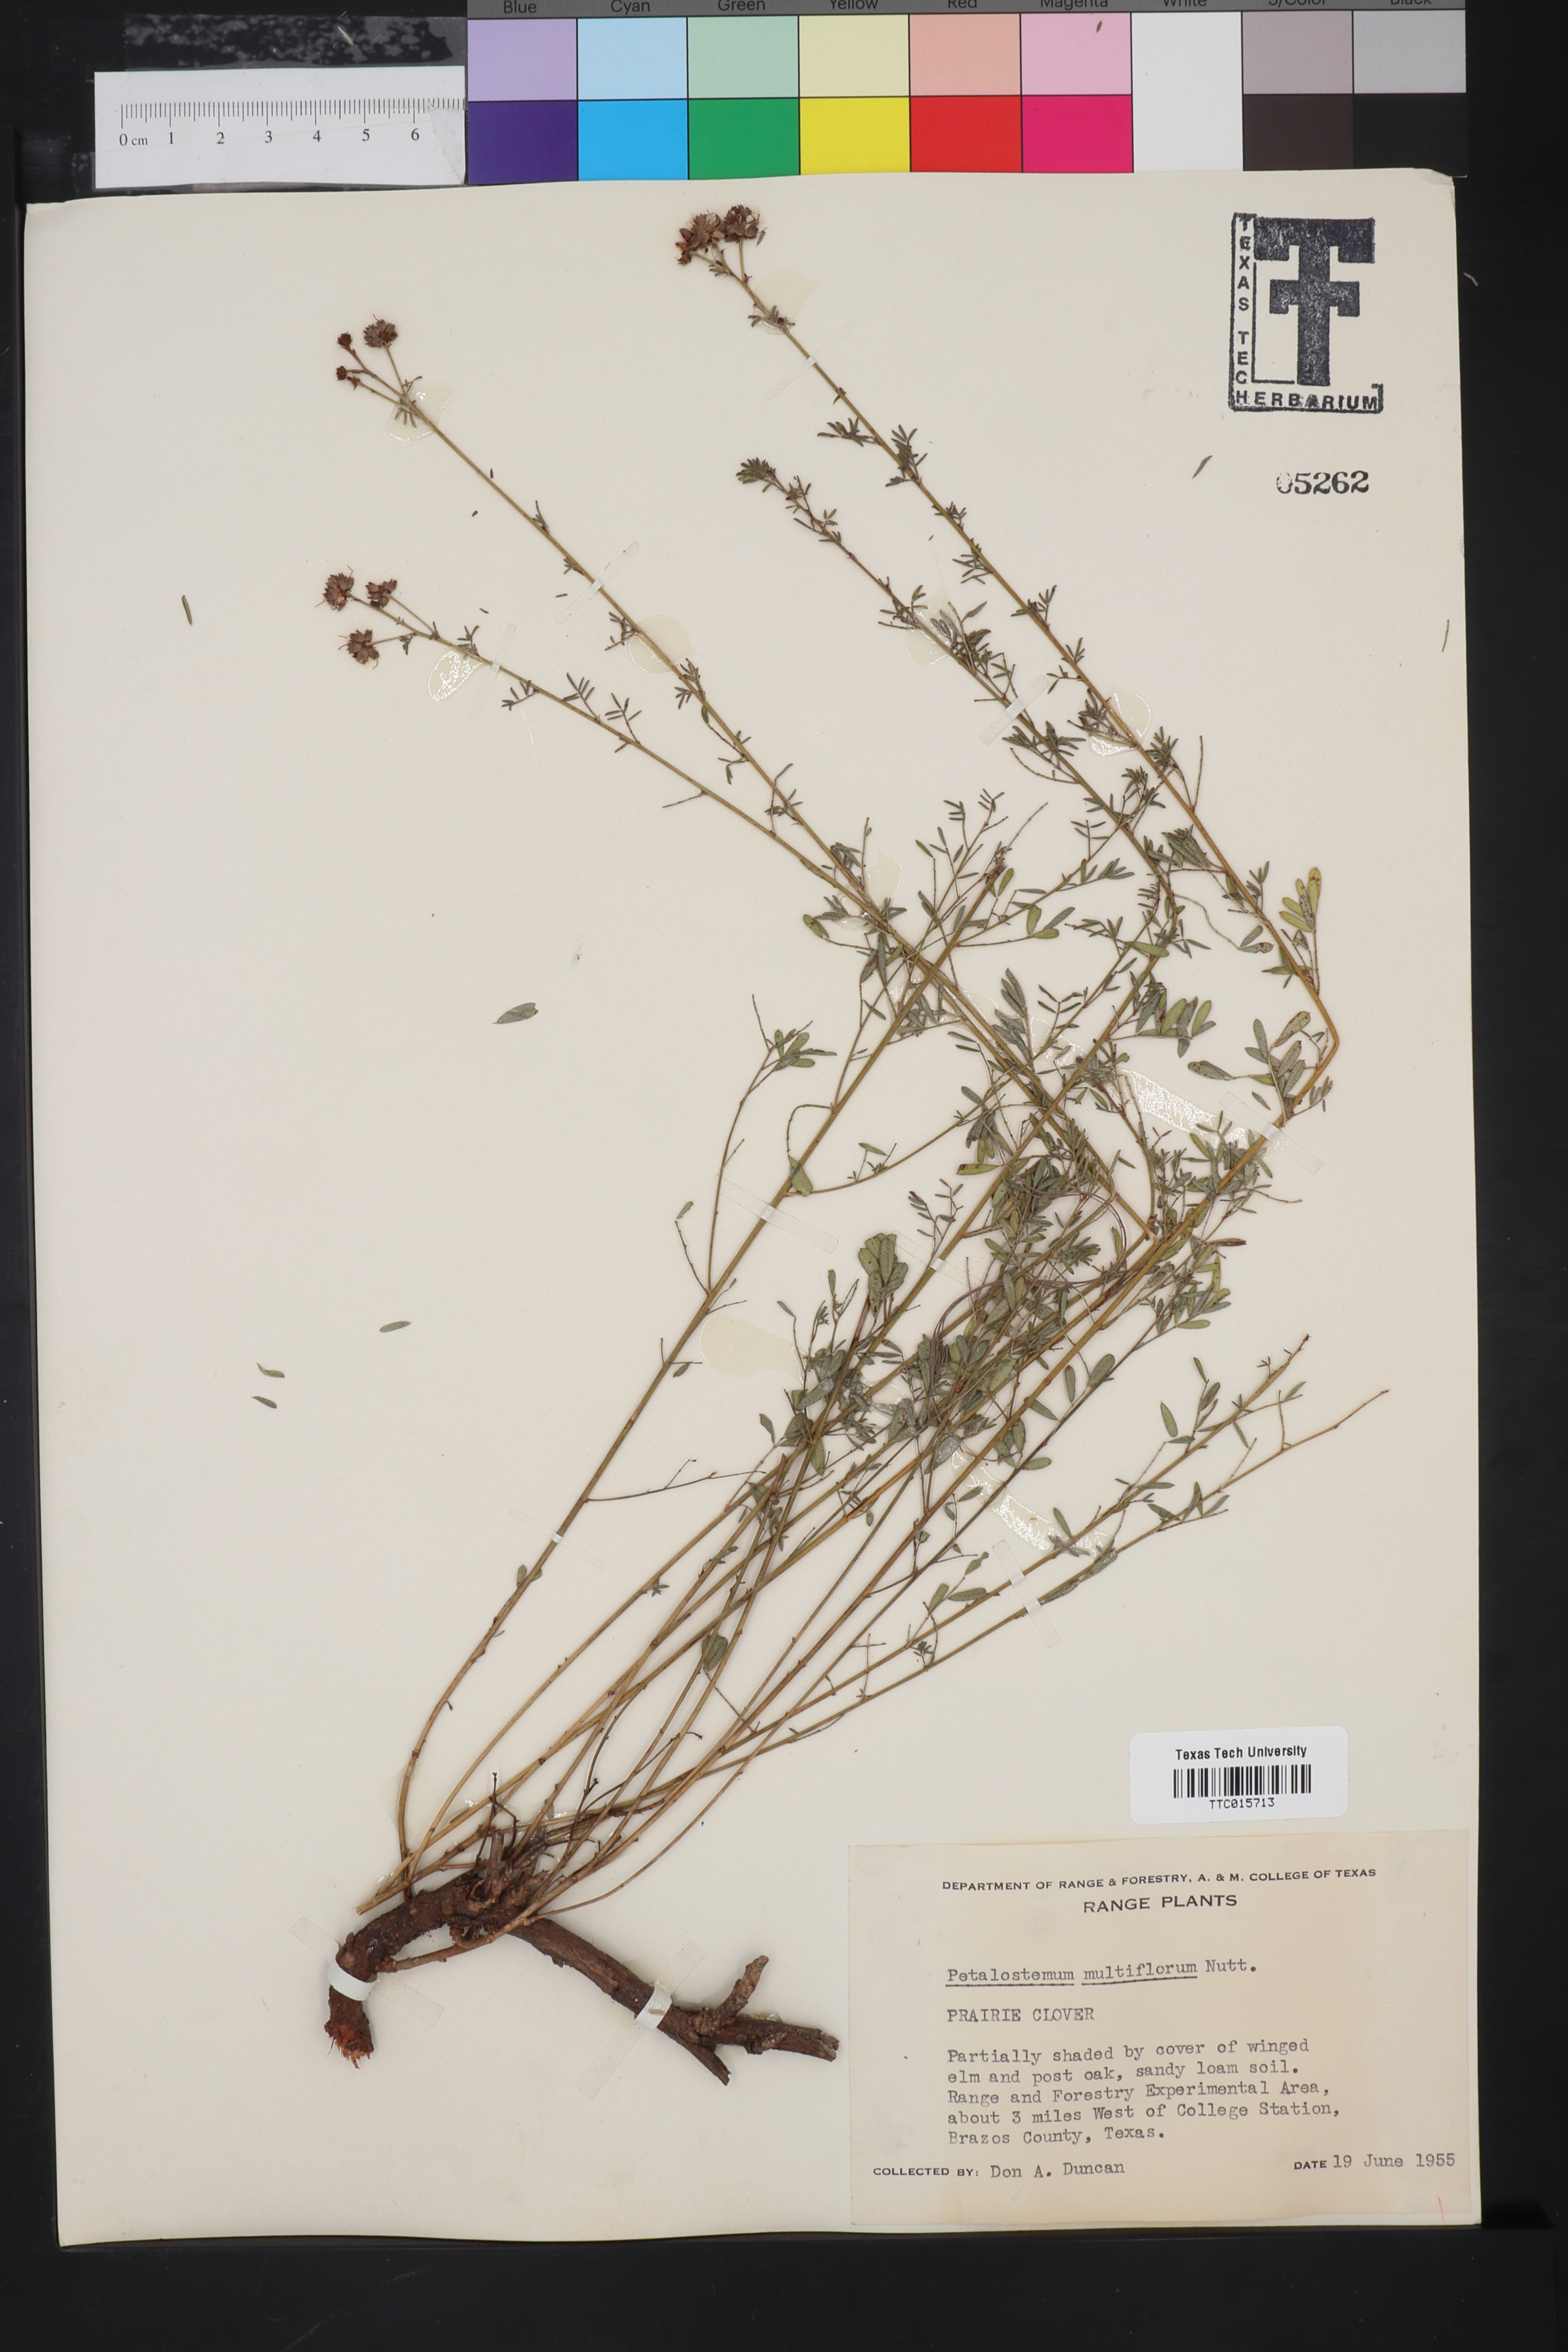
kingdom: Plantae
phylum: Tracheophyta
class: Magnoliopsida
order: Fabales
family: Fabaceae
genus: Petalostemum
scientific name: Petalostemum
